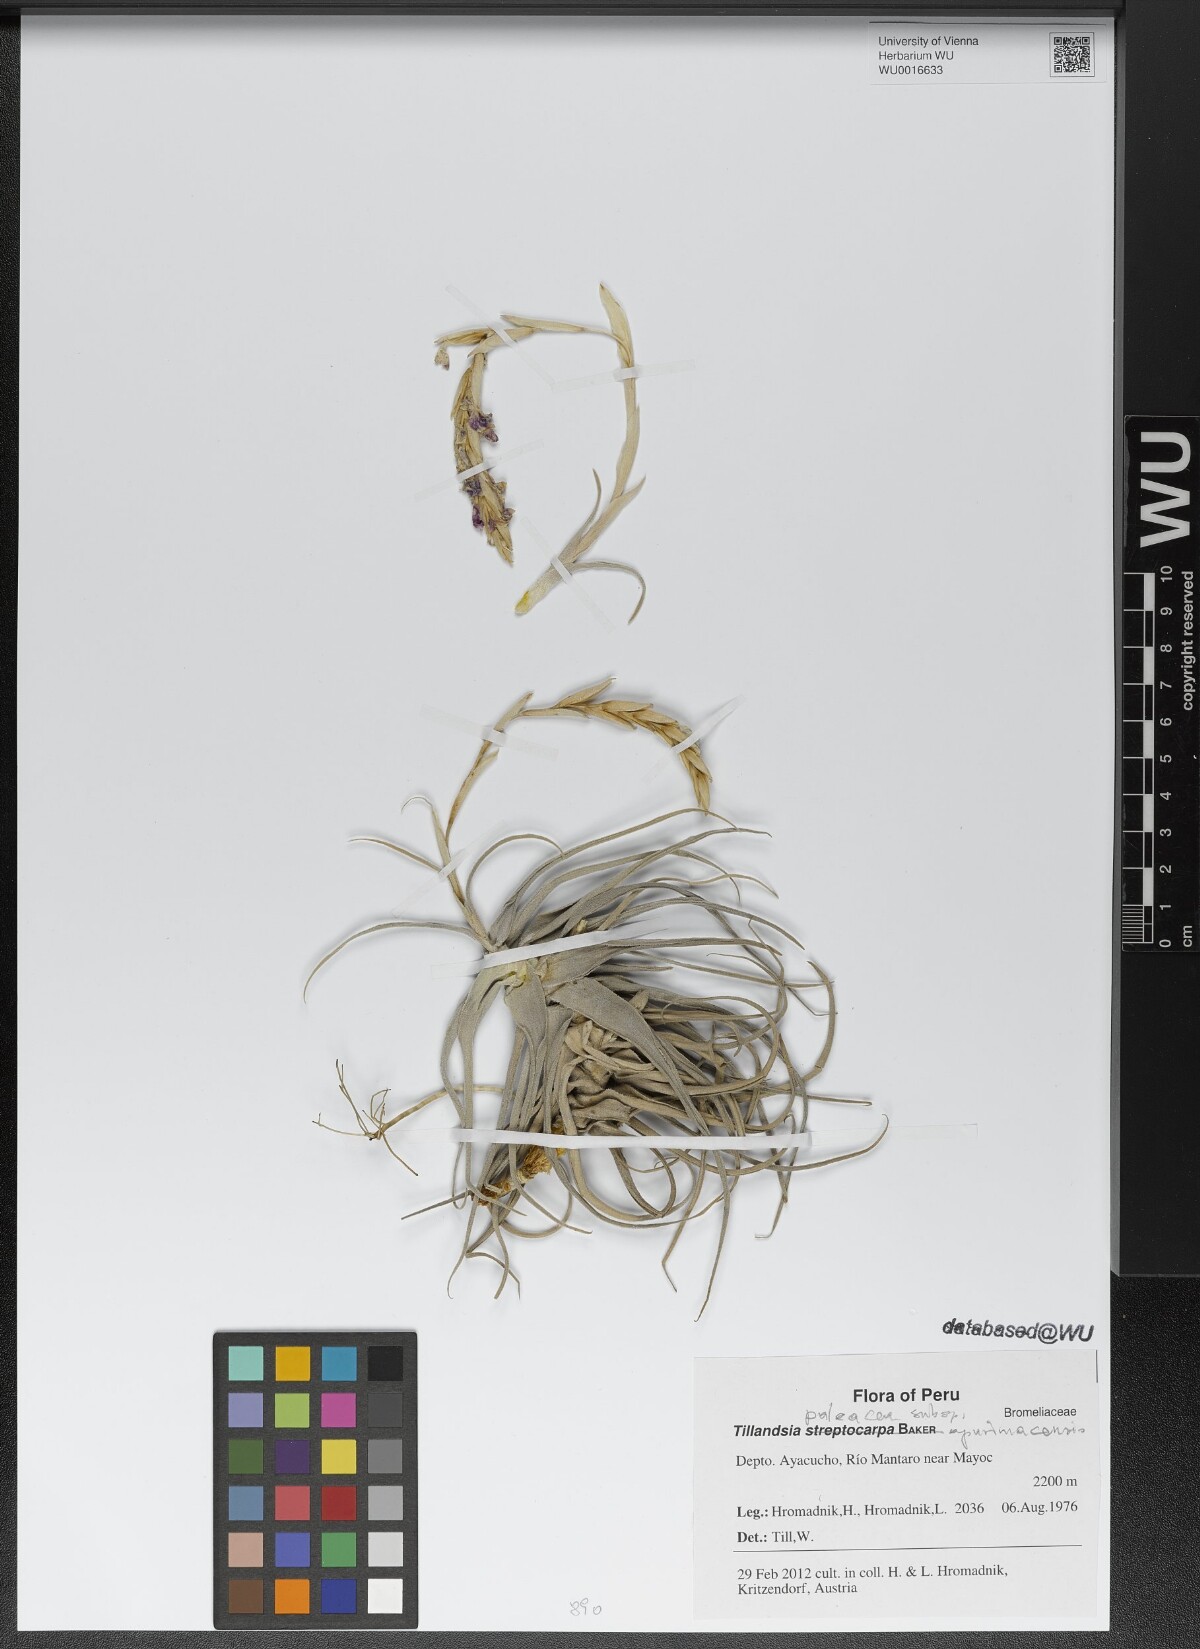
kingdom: Plantae
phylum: Tracheophyta
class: Liliopsida
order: Poales
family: Bromeliaceae
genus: Tillandsia
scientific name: Tillandsia paleacea
